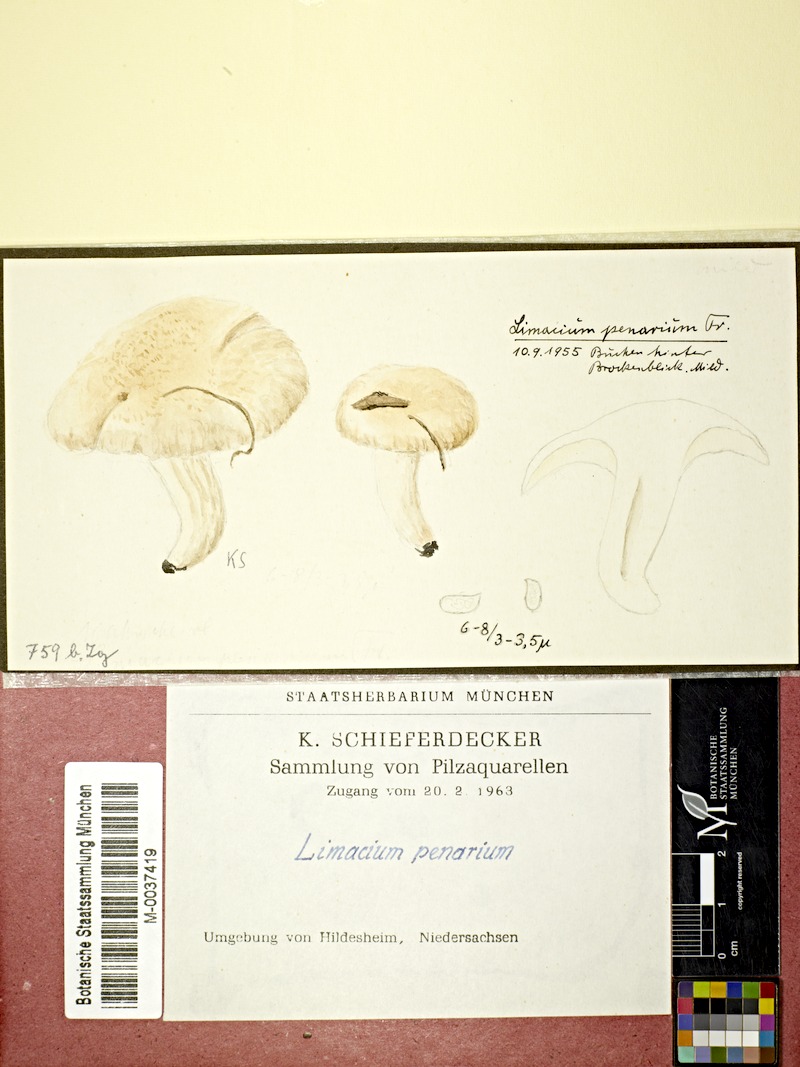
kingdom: Fungi
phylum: Basidiomycota
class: Agaricomycetes
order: Agaricales
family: Hygrophoraceae
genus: Hygrophorus
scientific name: Hygrophorus penarius
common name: Matt woodwax
